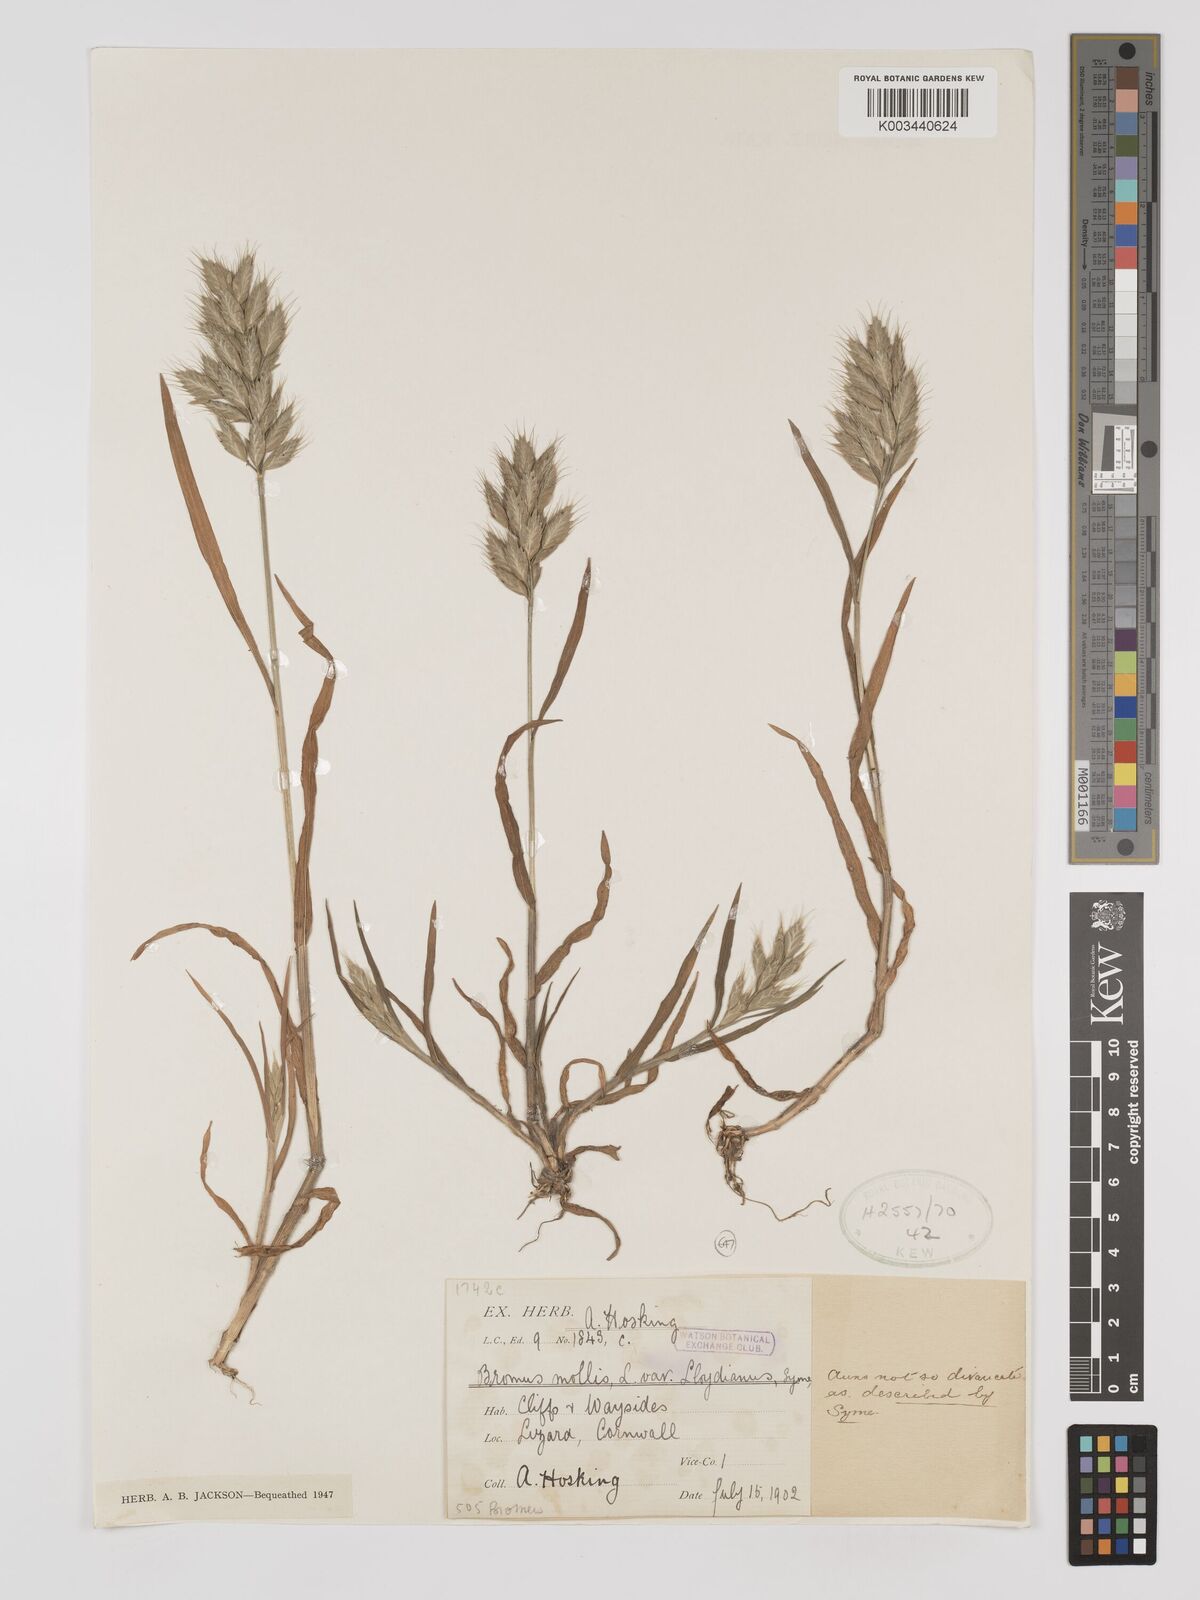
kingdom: Plantae
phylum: Tracheophyta
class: Liliopsida
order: Poales
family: Poaceae
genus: Bromus
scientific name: Bromus hordeaceus
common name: Soft brome
